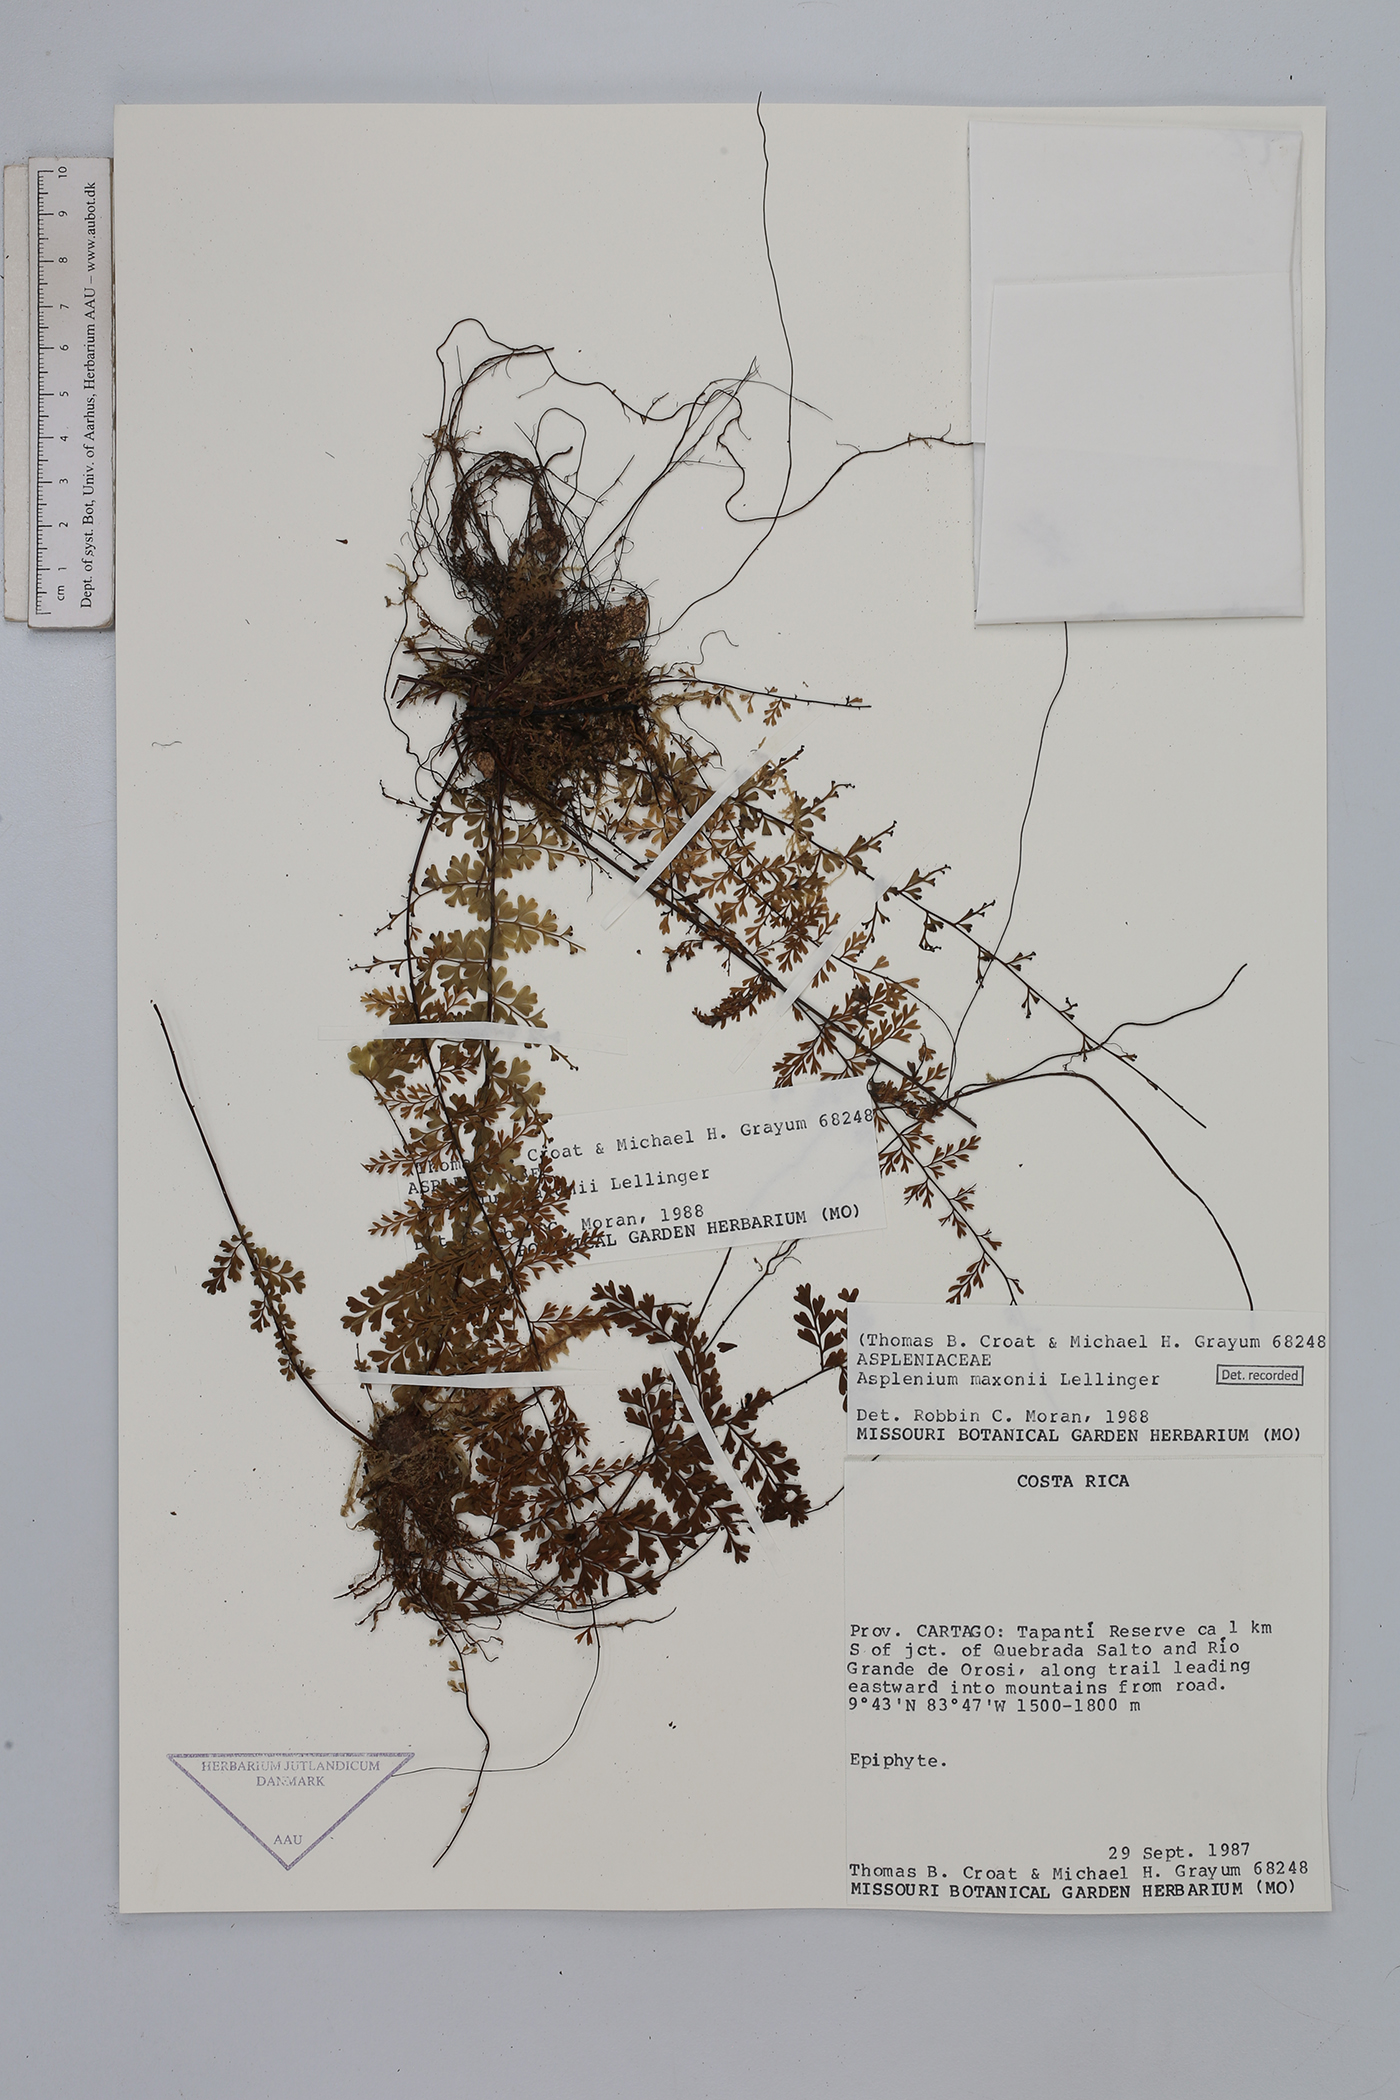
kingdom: Plantae
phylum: Tracheophyta
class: Polypodiopsida
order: Polypodiales
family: Aspleniaceae
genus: Asplenium
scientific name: Asplenium maxonii
